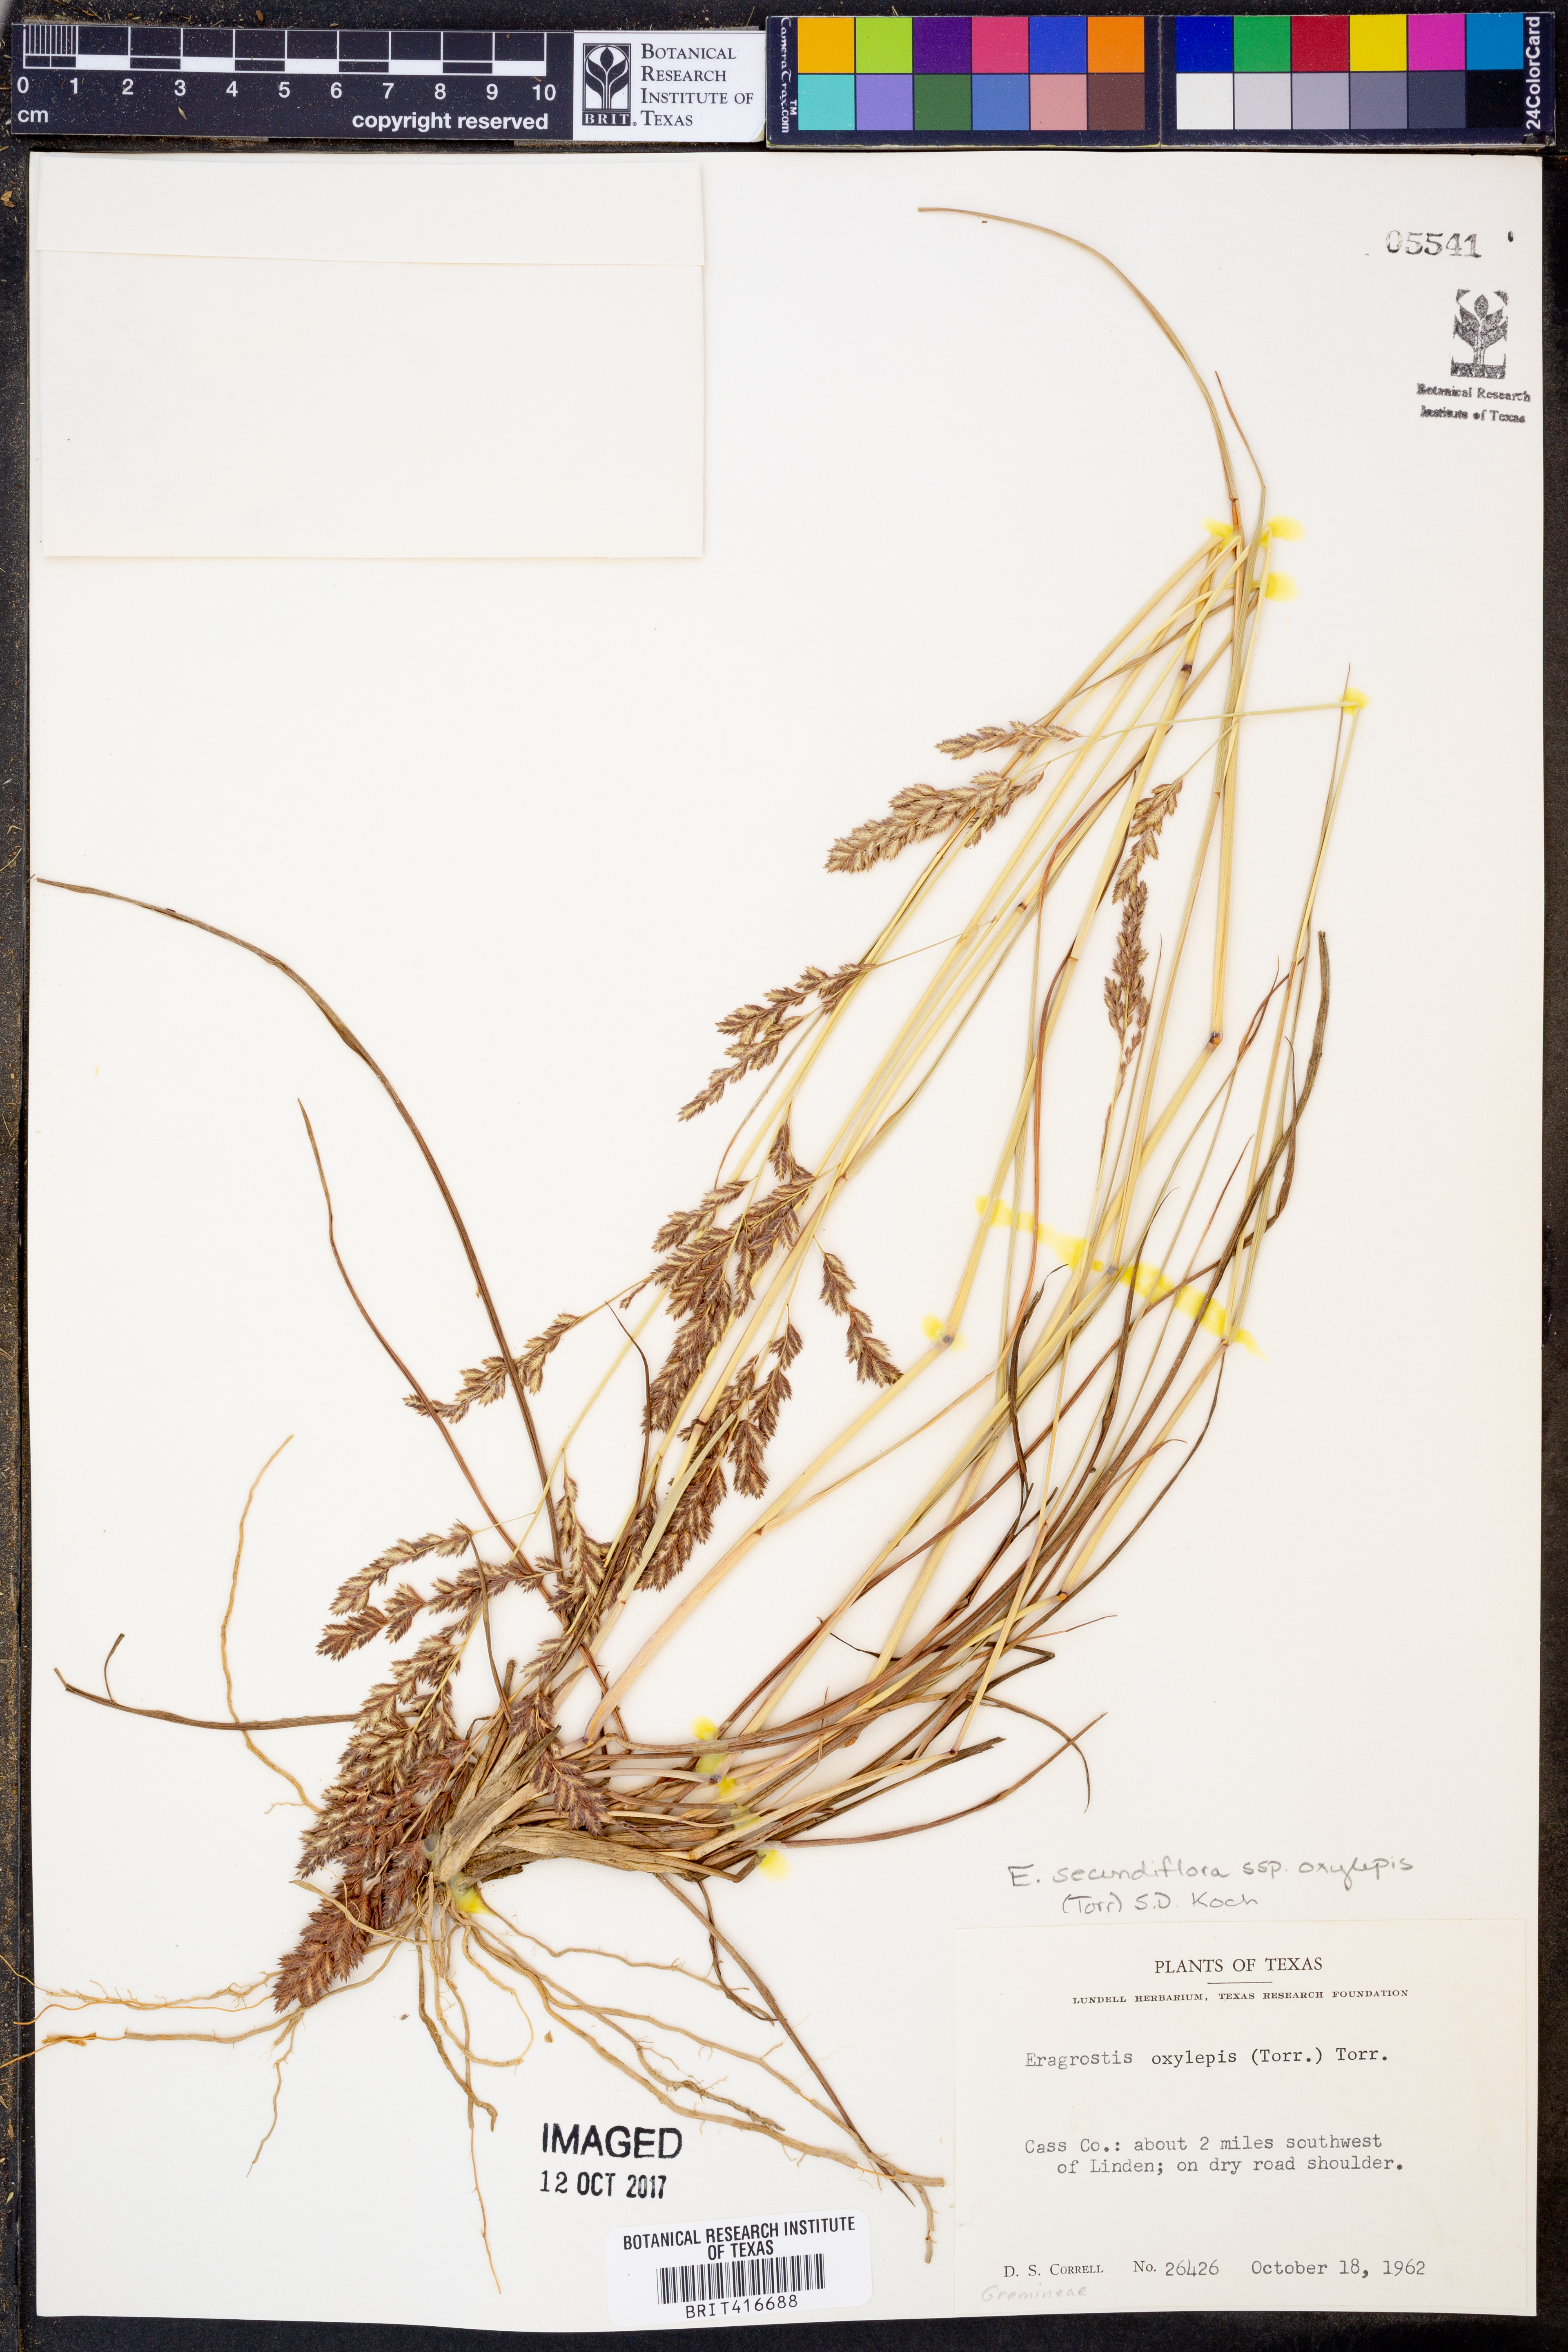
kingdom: Plantae
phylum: Tracheophyta
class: Liliopsida
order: Poales
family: Poaceae
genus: Eragrostis
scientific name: Eragrostis secundiflora
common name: Red love grass
